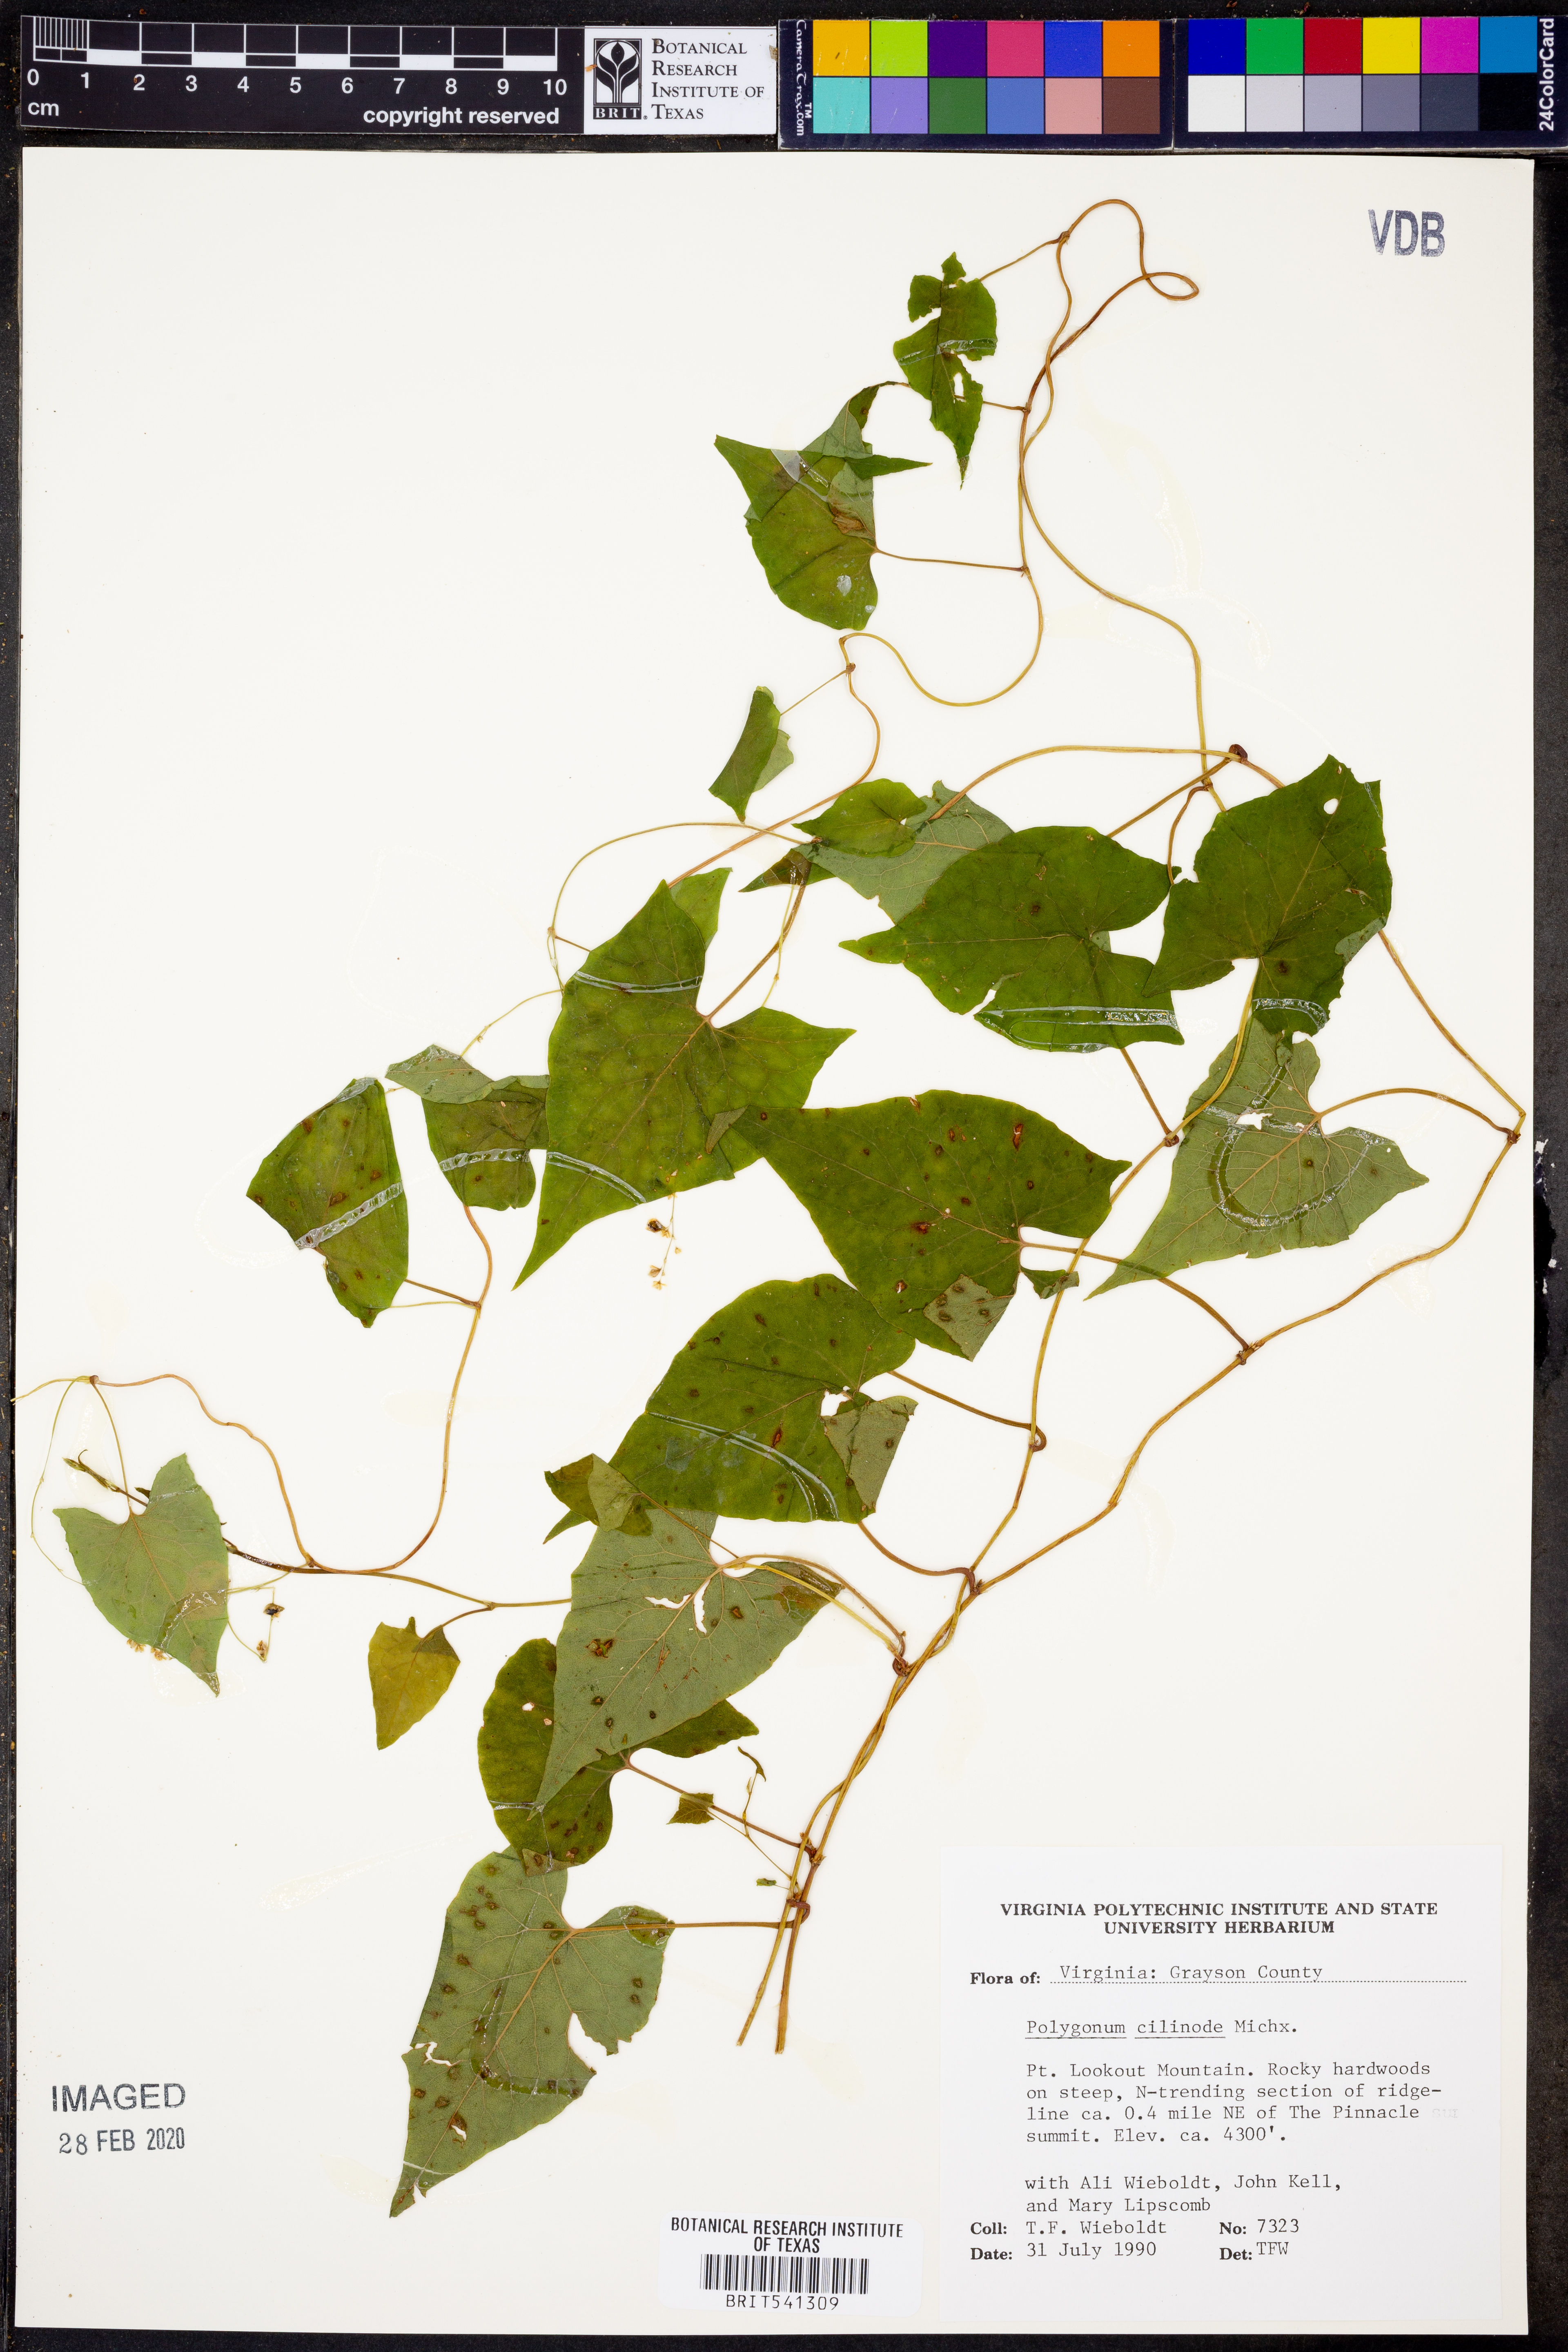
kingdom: Plantae
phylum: Tracheophyta
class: Magnoliopsida
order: Caryophyllales
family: Polygonaceae
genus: Parogonum
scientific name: Parogonum ciliinode
